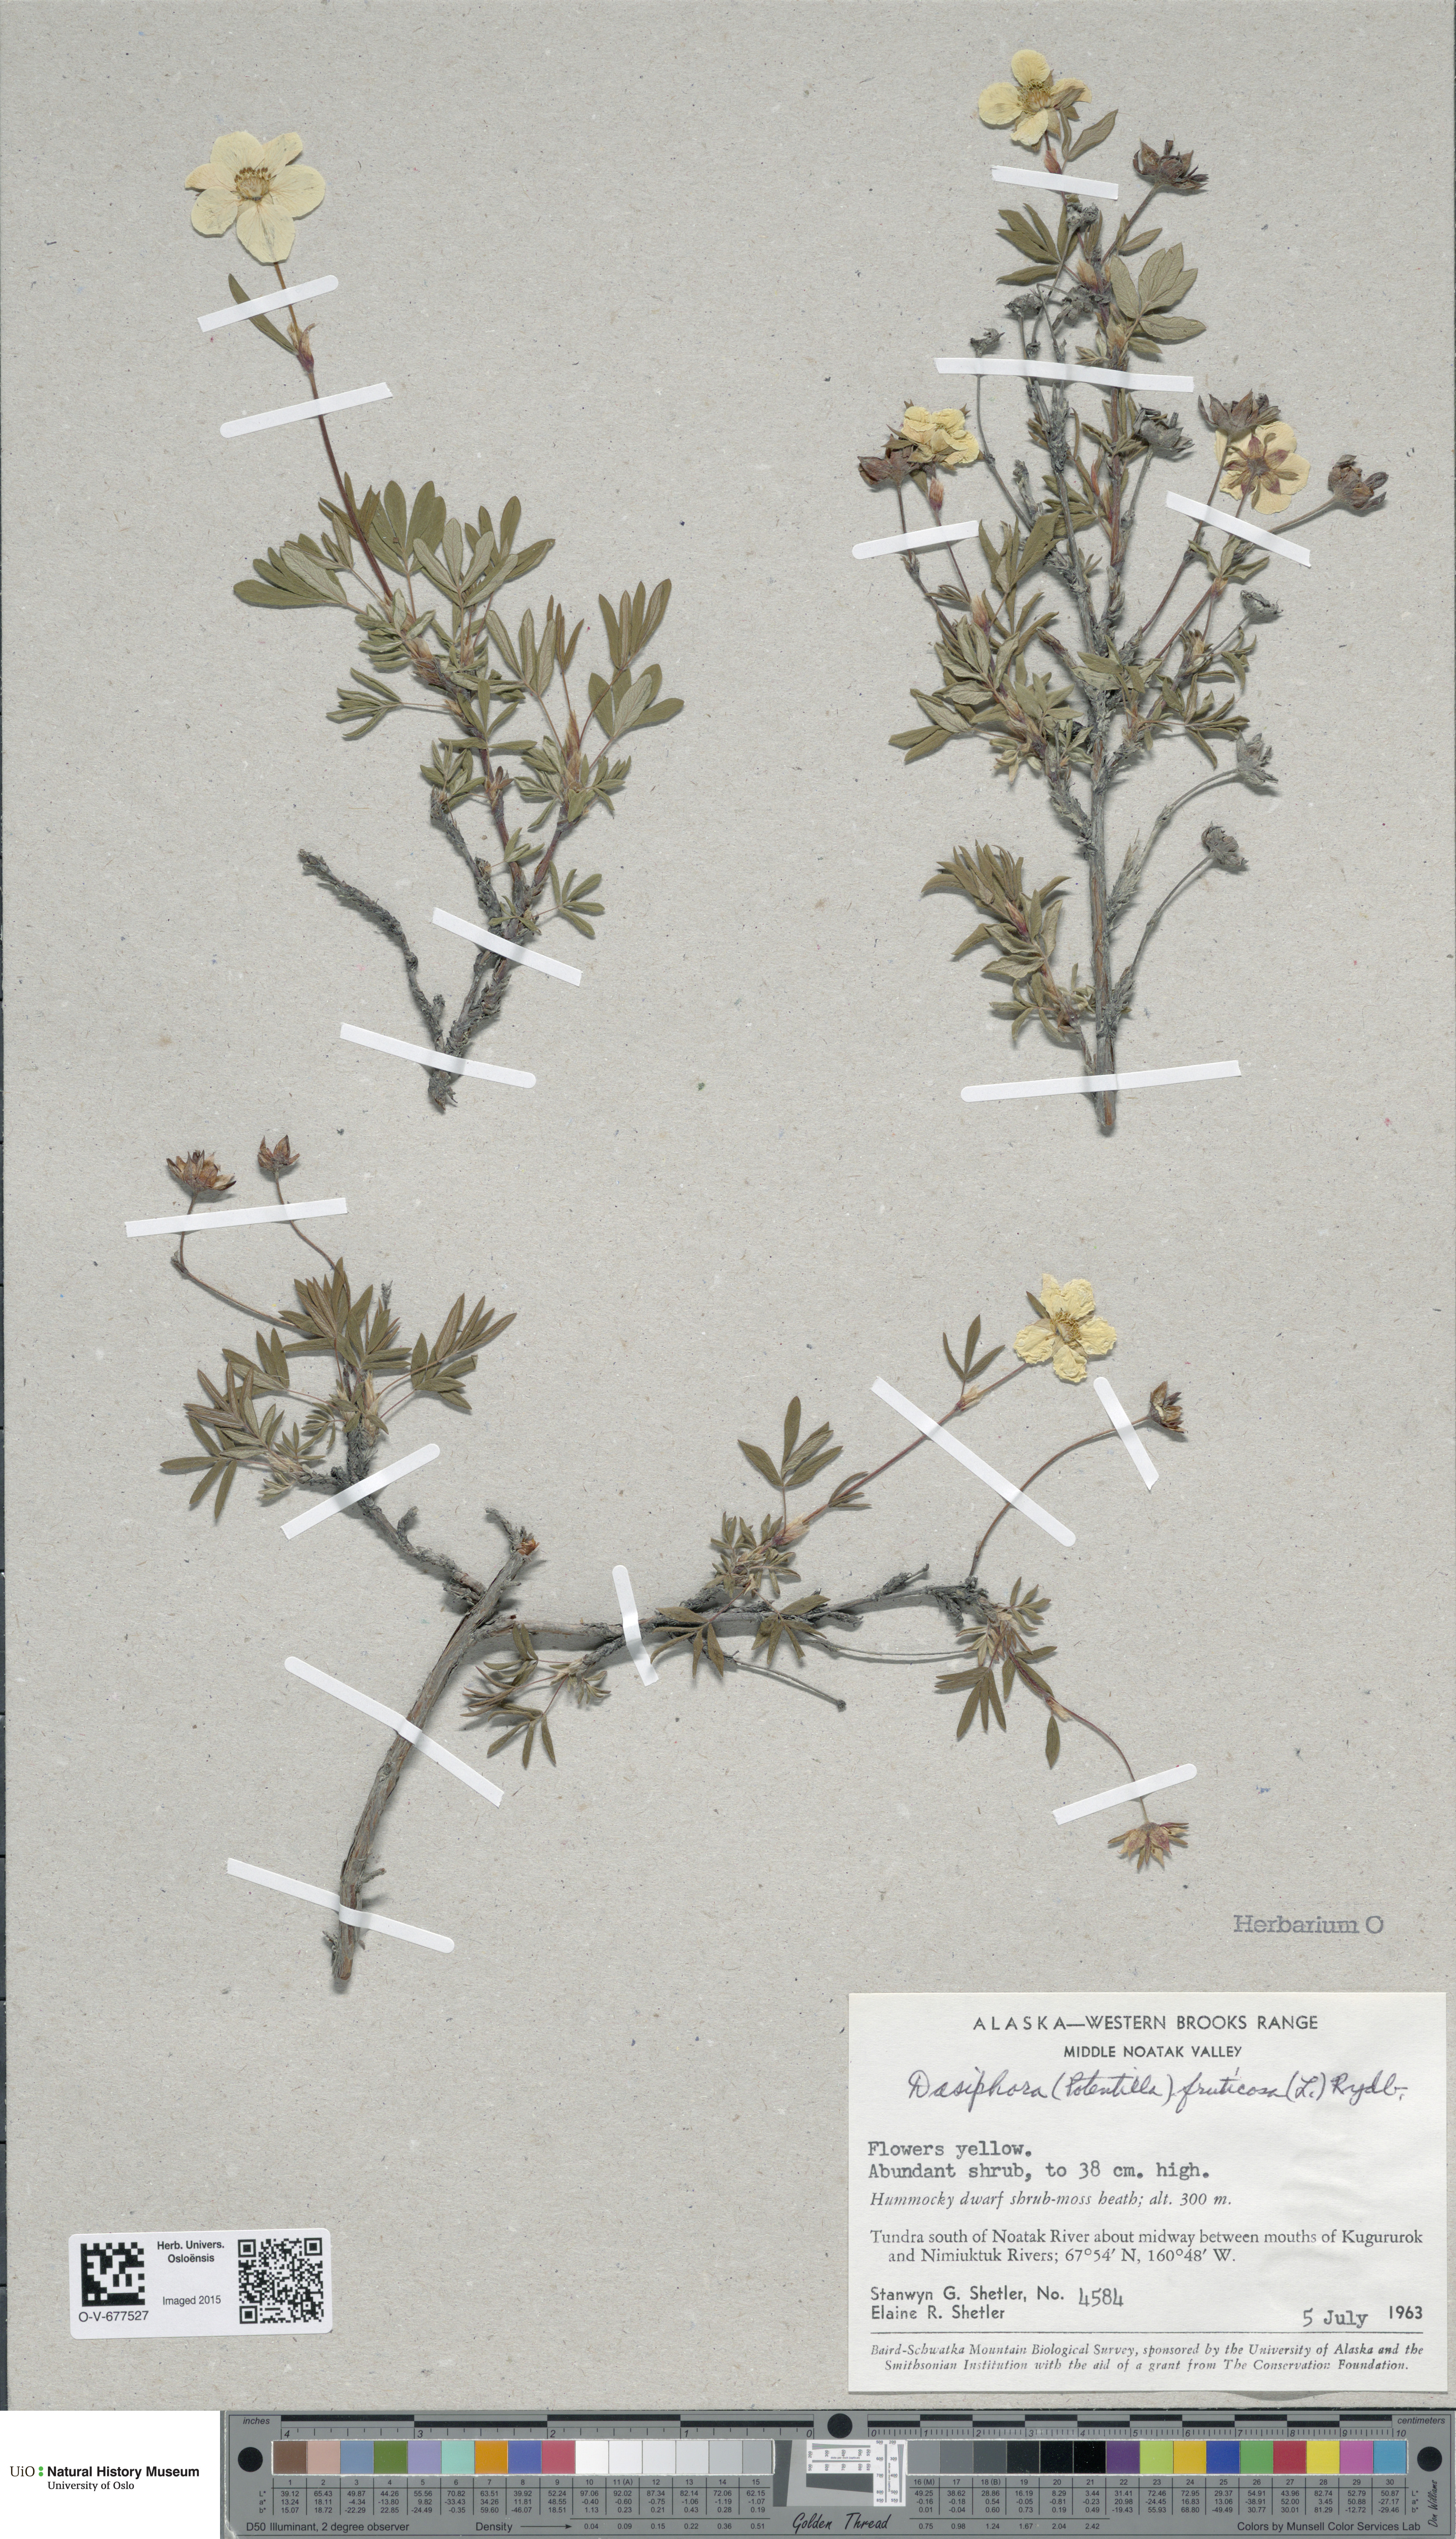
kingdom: Plantae
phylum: Tracheophyta
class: Magnoliopsida
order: Rosales
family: Rosaceae
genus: Dasiphora
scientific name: Dasiphora fruticosa
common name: Shrubby cinquefoil
